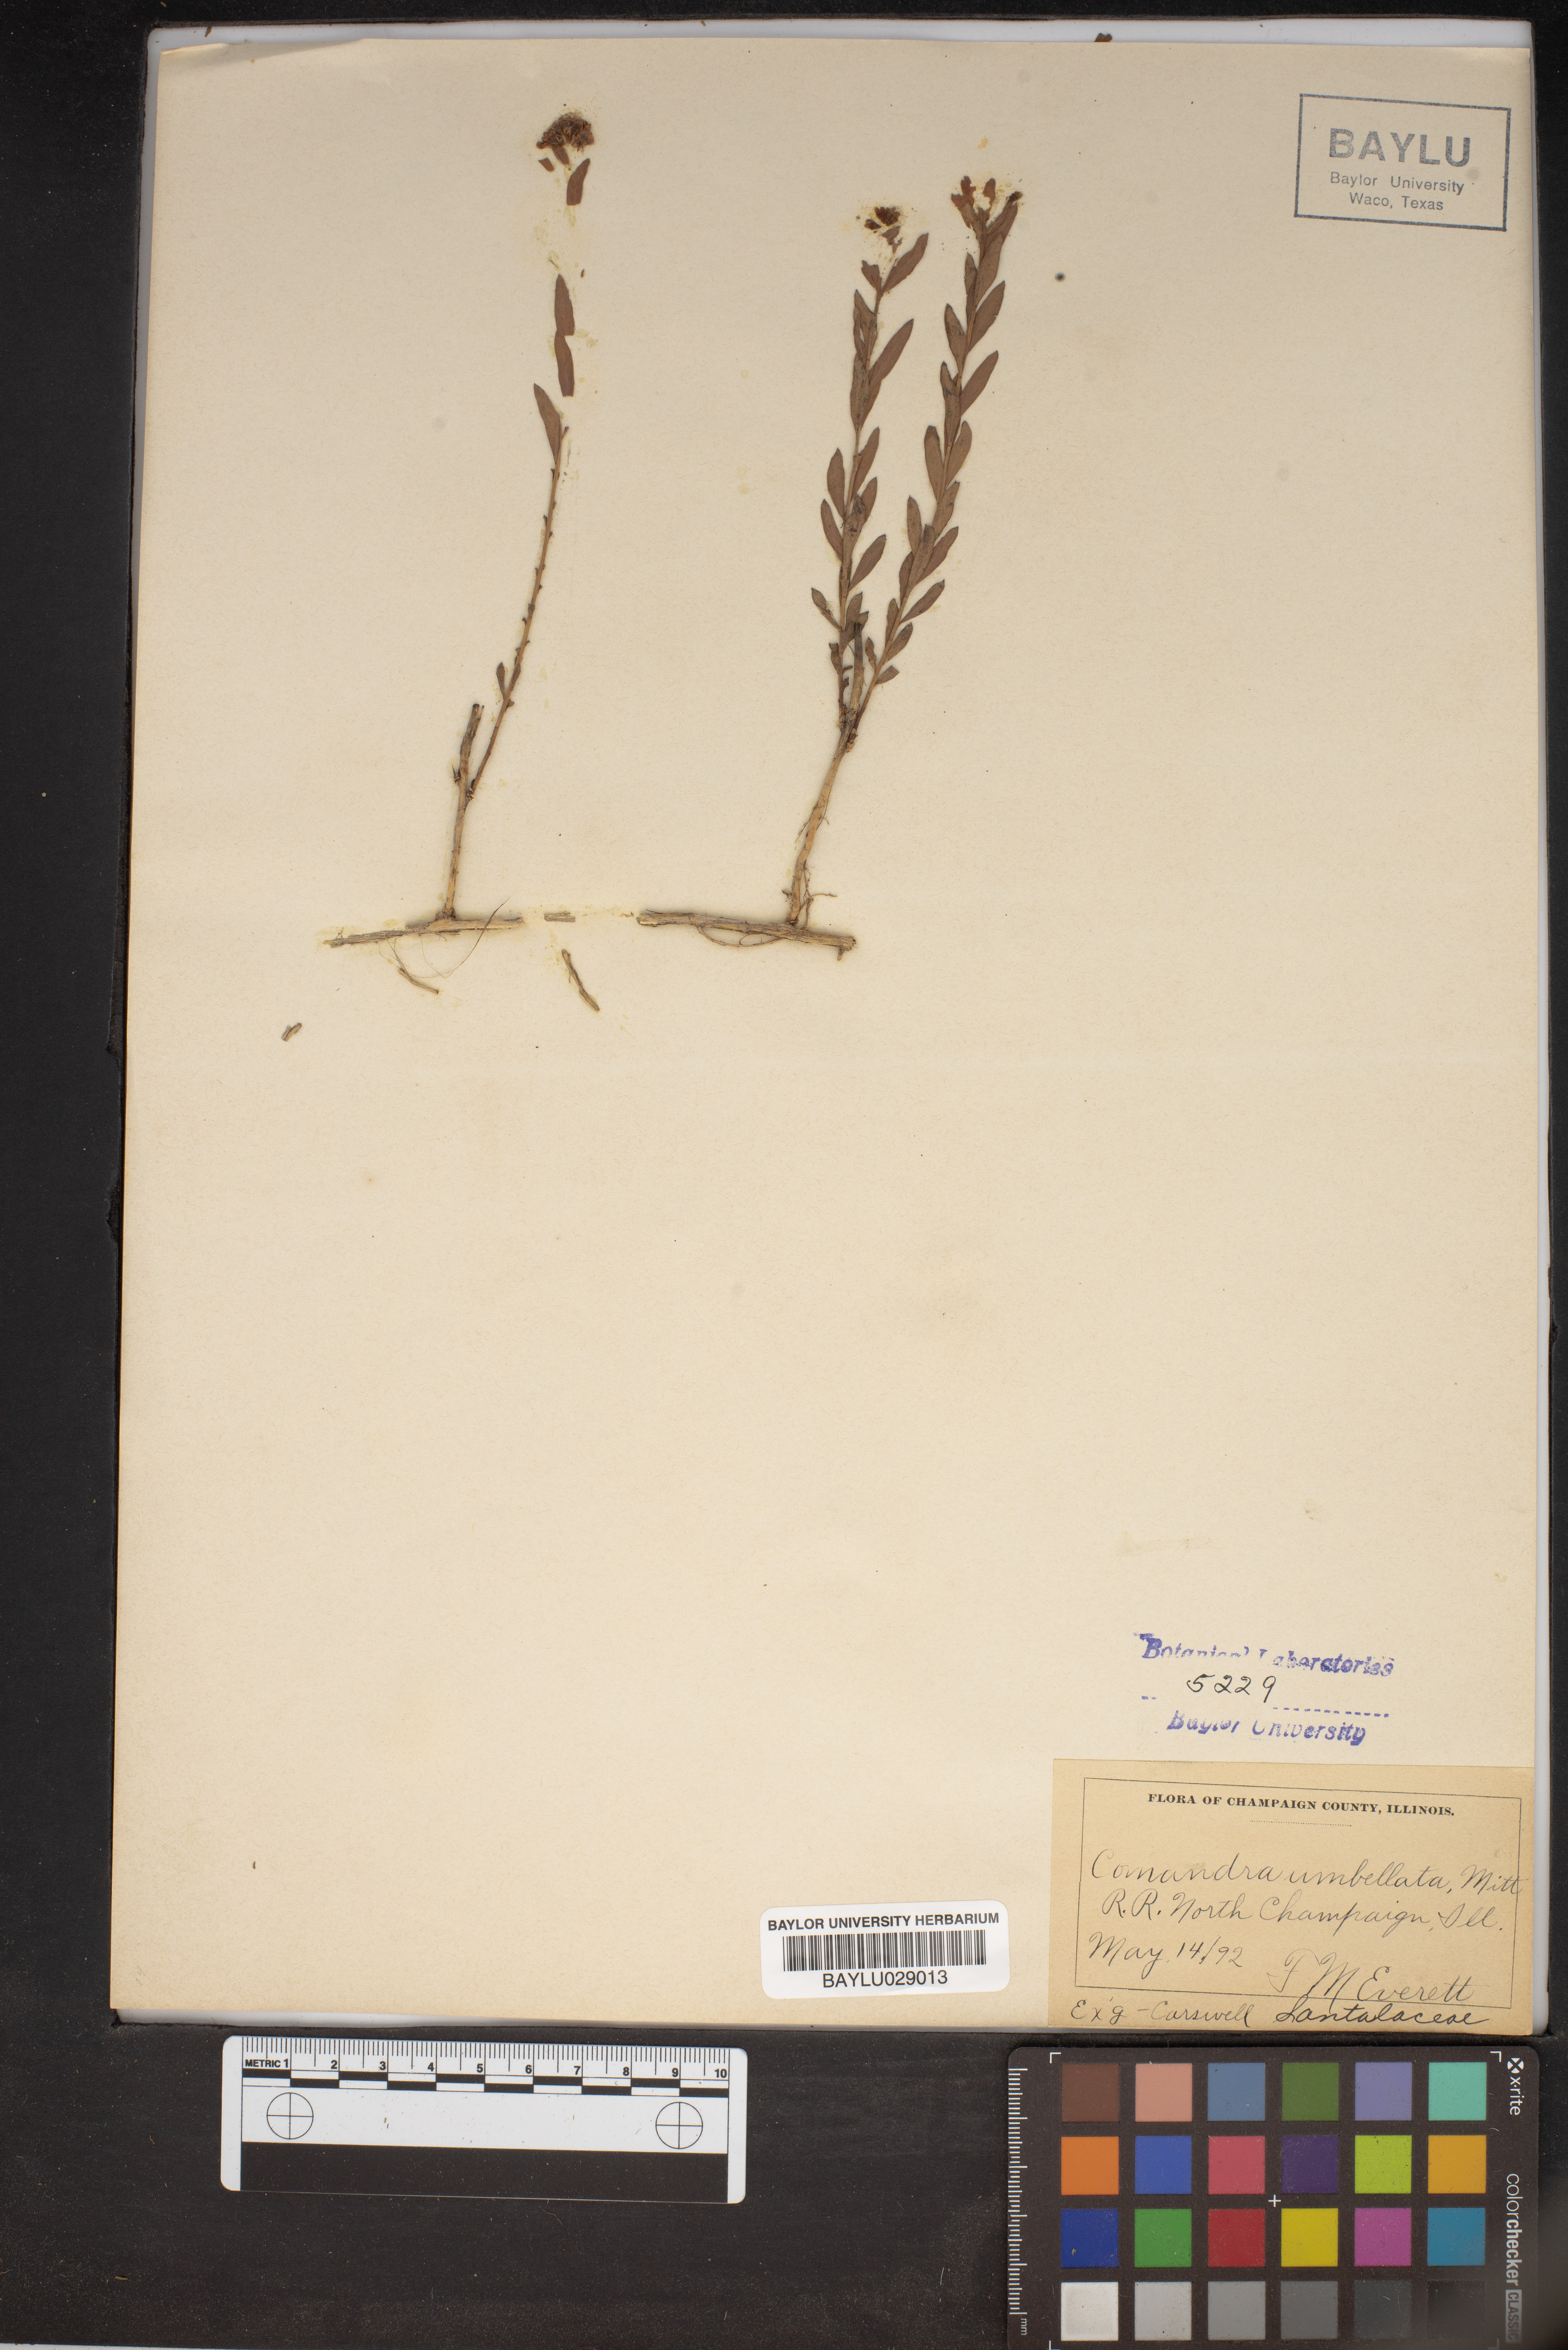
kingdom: Plantae
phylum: Tracheophyta
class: Magnoliopsida
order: Santalales
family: Comandraceae
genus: Comandra
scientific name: Comandra umbellata
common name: Bastard toadflax
